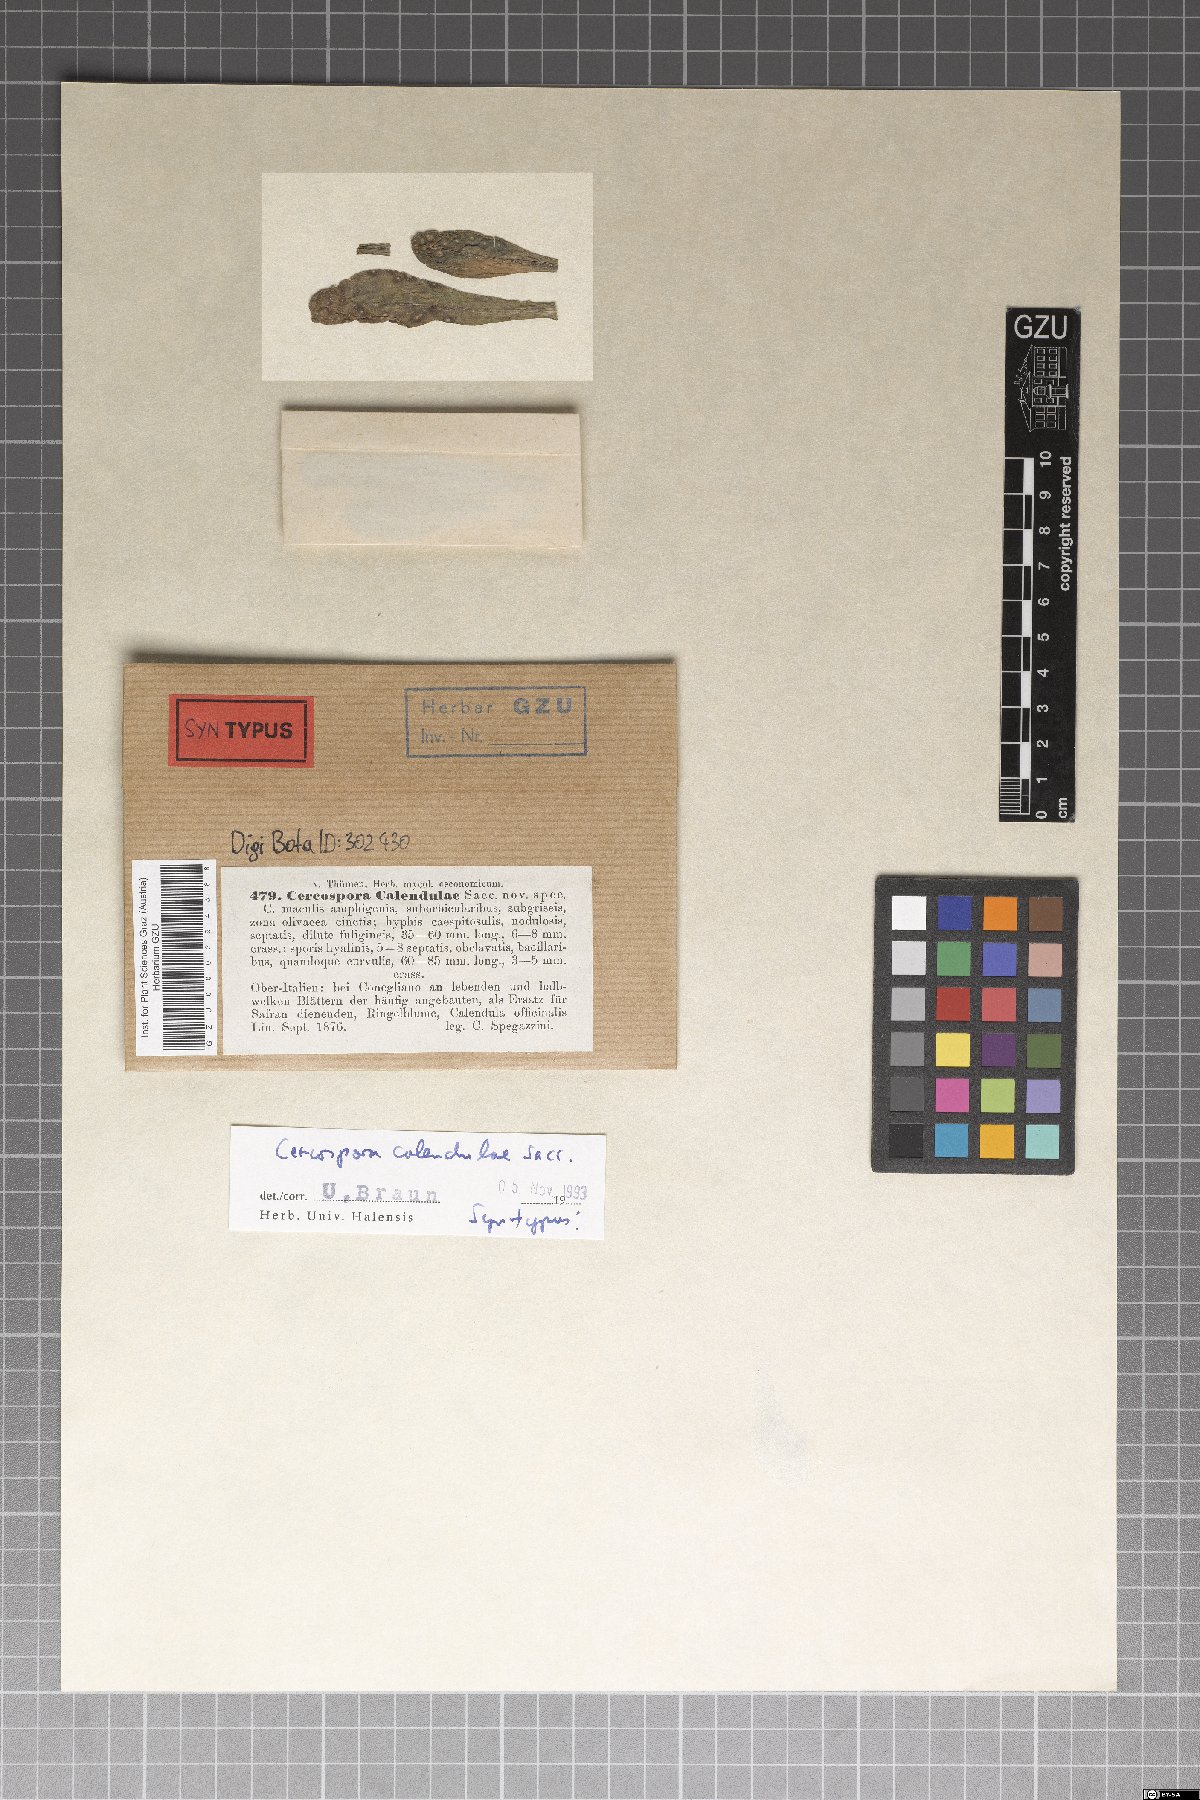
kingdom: Fungi
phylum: Ascomycota
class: Dothideomycetes
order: Mycosphaerellales
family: Mycosphaerellaceae
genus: Cercospora
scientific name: Cercospora calendulae
